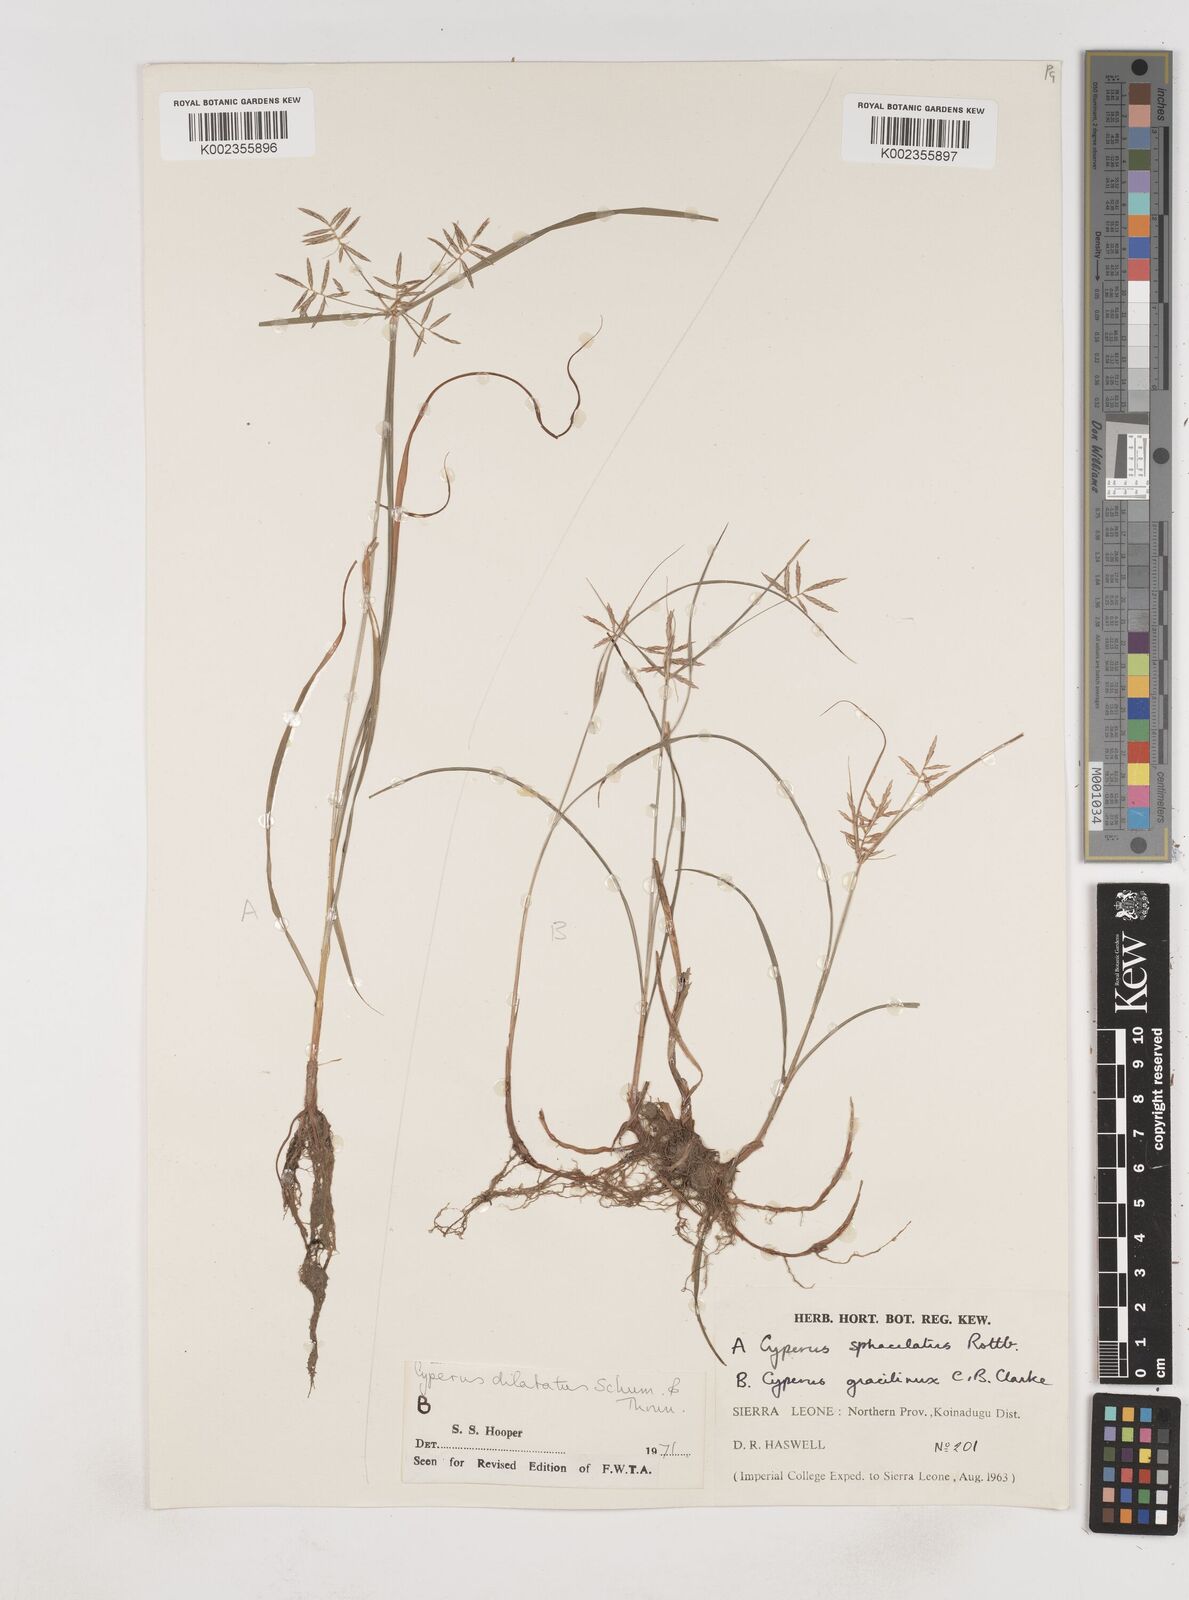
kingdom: Plantae
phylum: Tracheophyta
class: Liliopsida
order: Poales
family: Cyperaceae
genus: Cyperus
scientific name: Cyperus dilatatus
